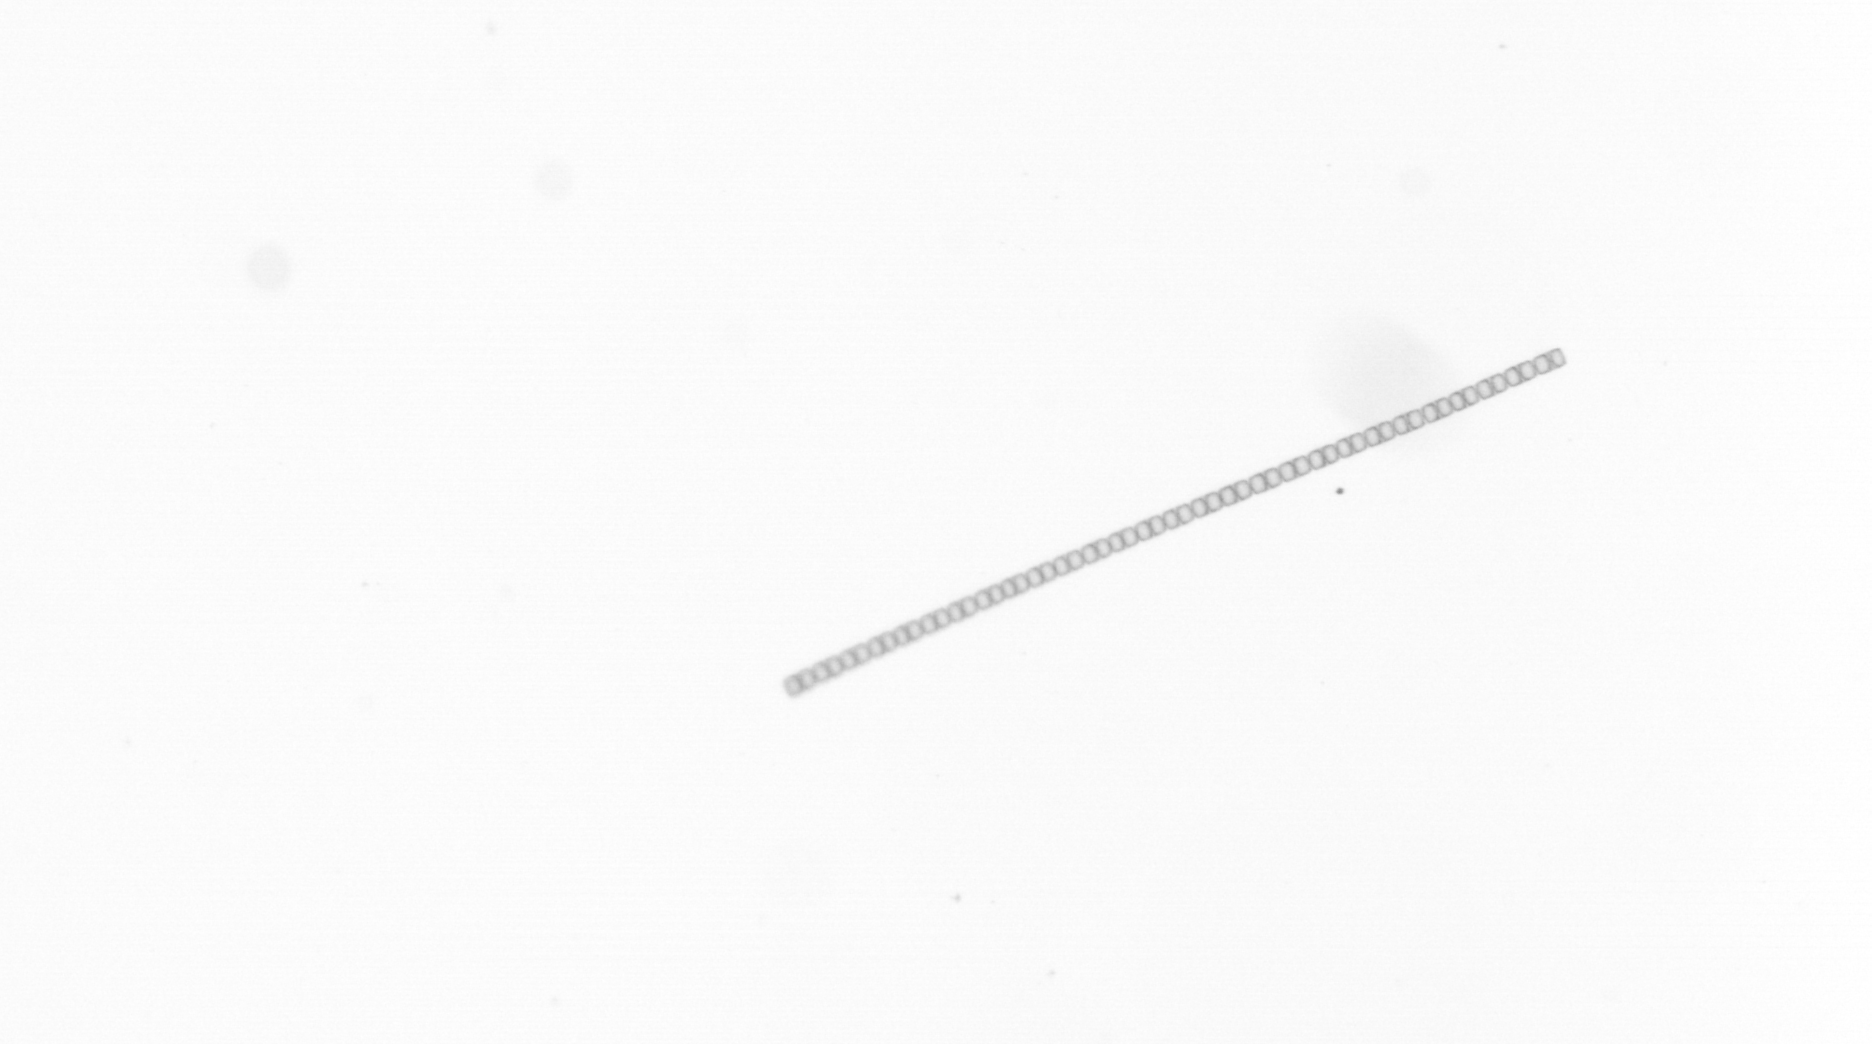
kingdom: Chromista
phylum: Ochrophyta
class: Bacillariophyceae
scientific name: Bacillariophyceae
